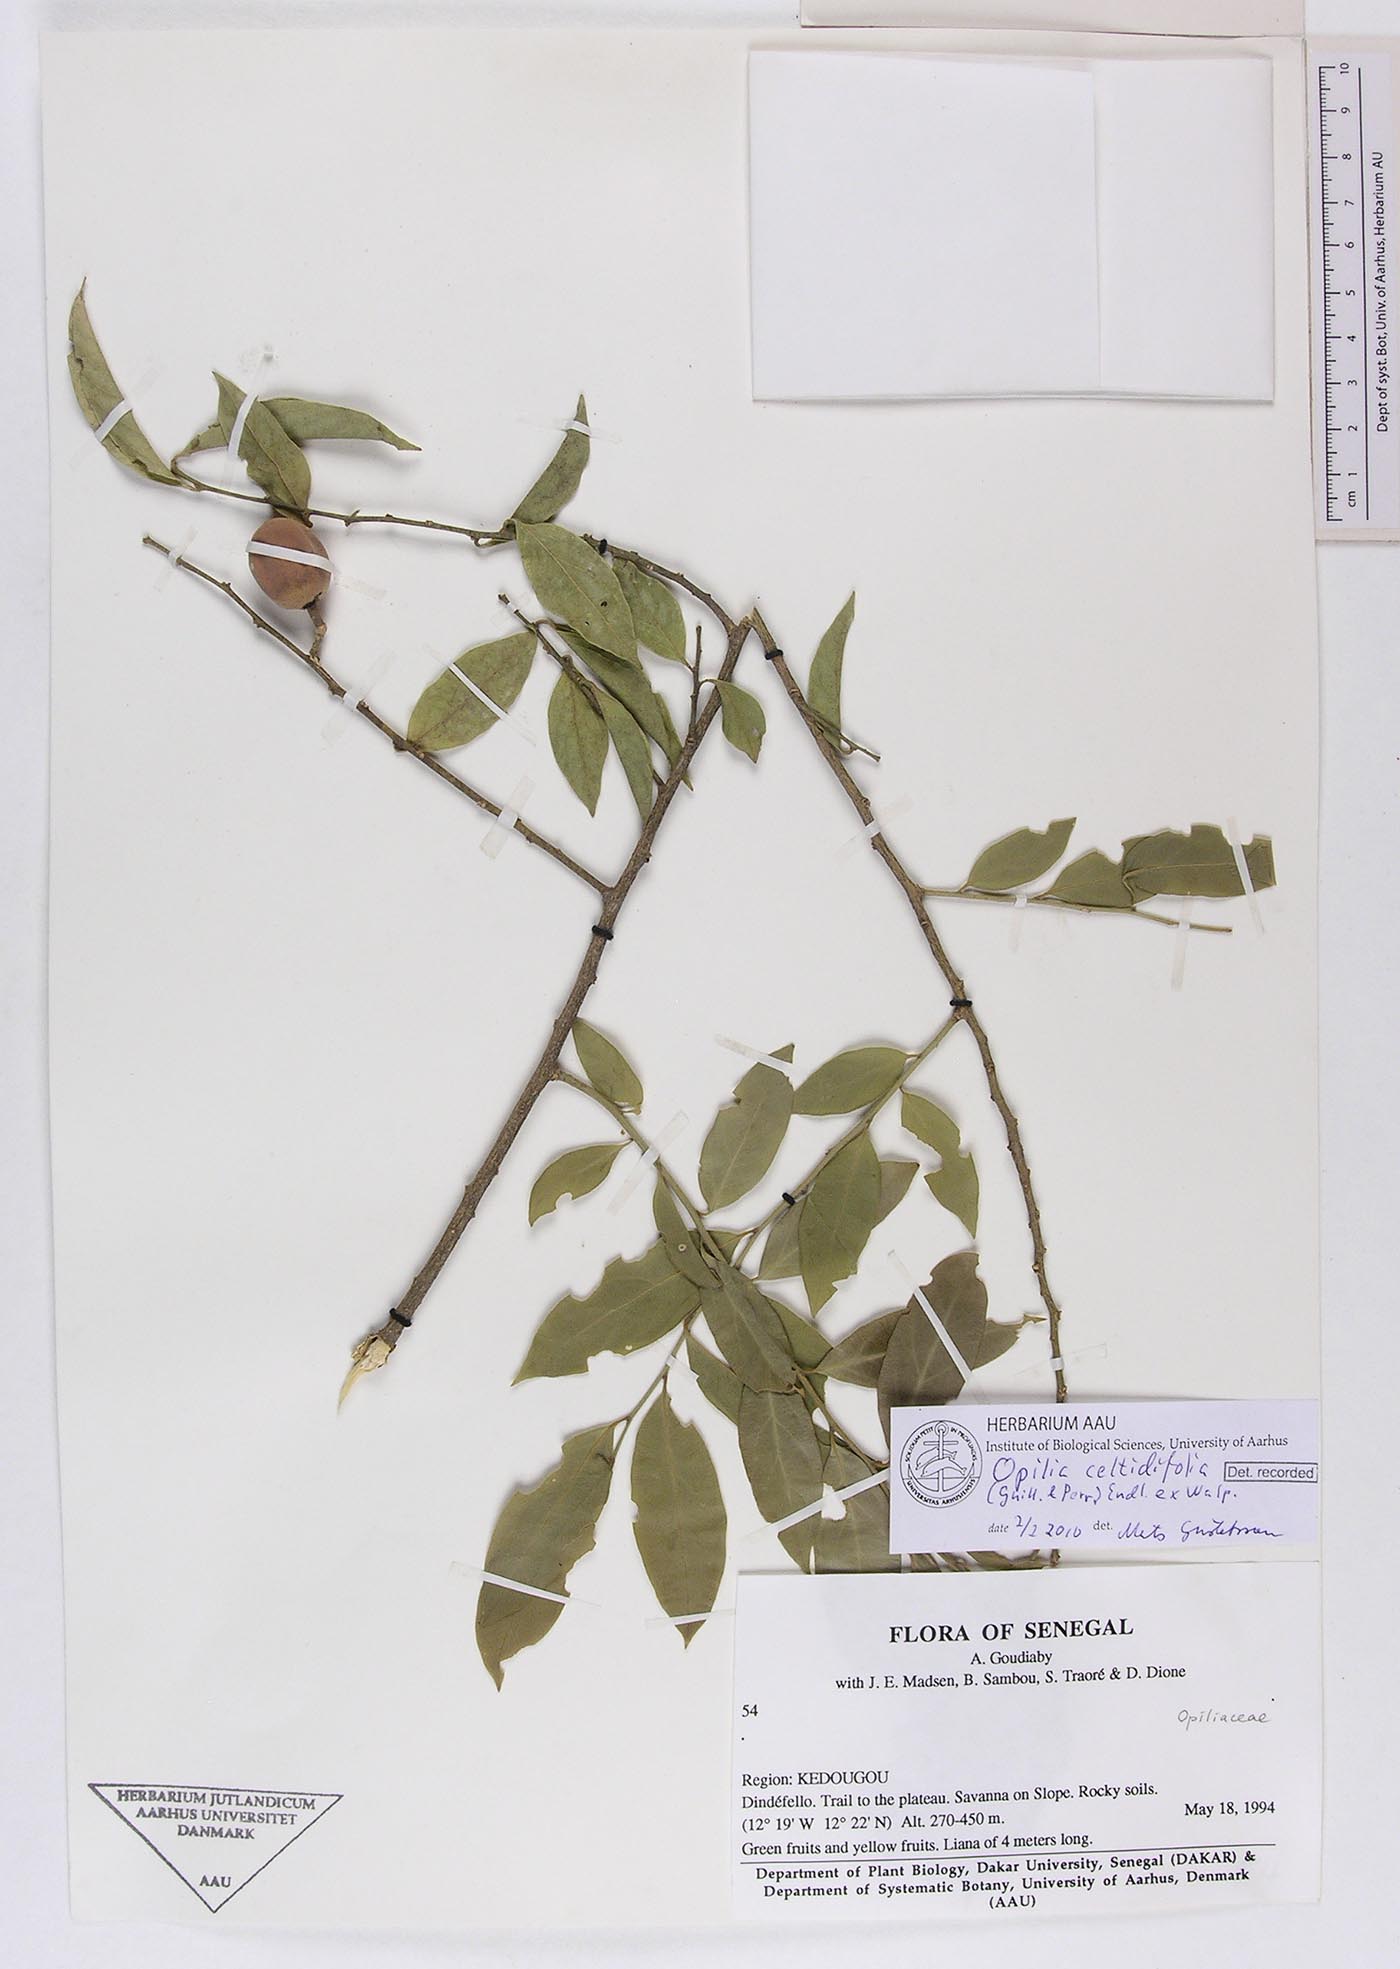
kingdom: Plantae
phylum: Tracheophyta
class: Magnoliopsida
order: Santalales
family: Opiliaceae
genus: Opilia
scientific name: Opilia amentacea
